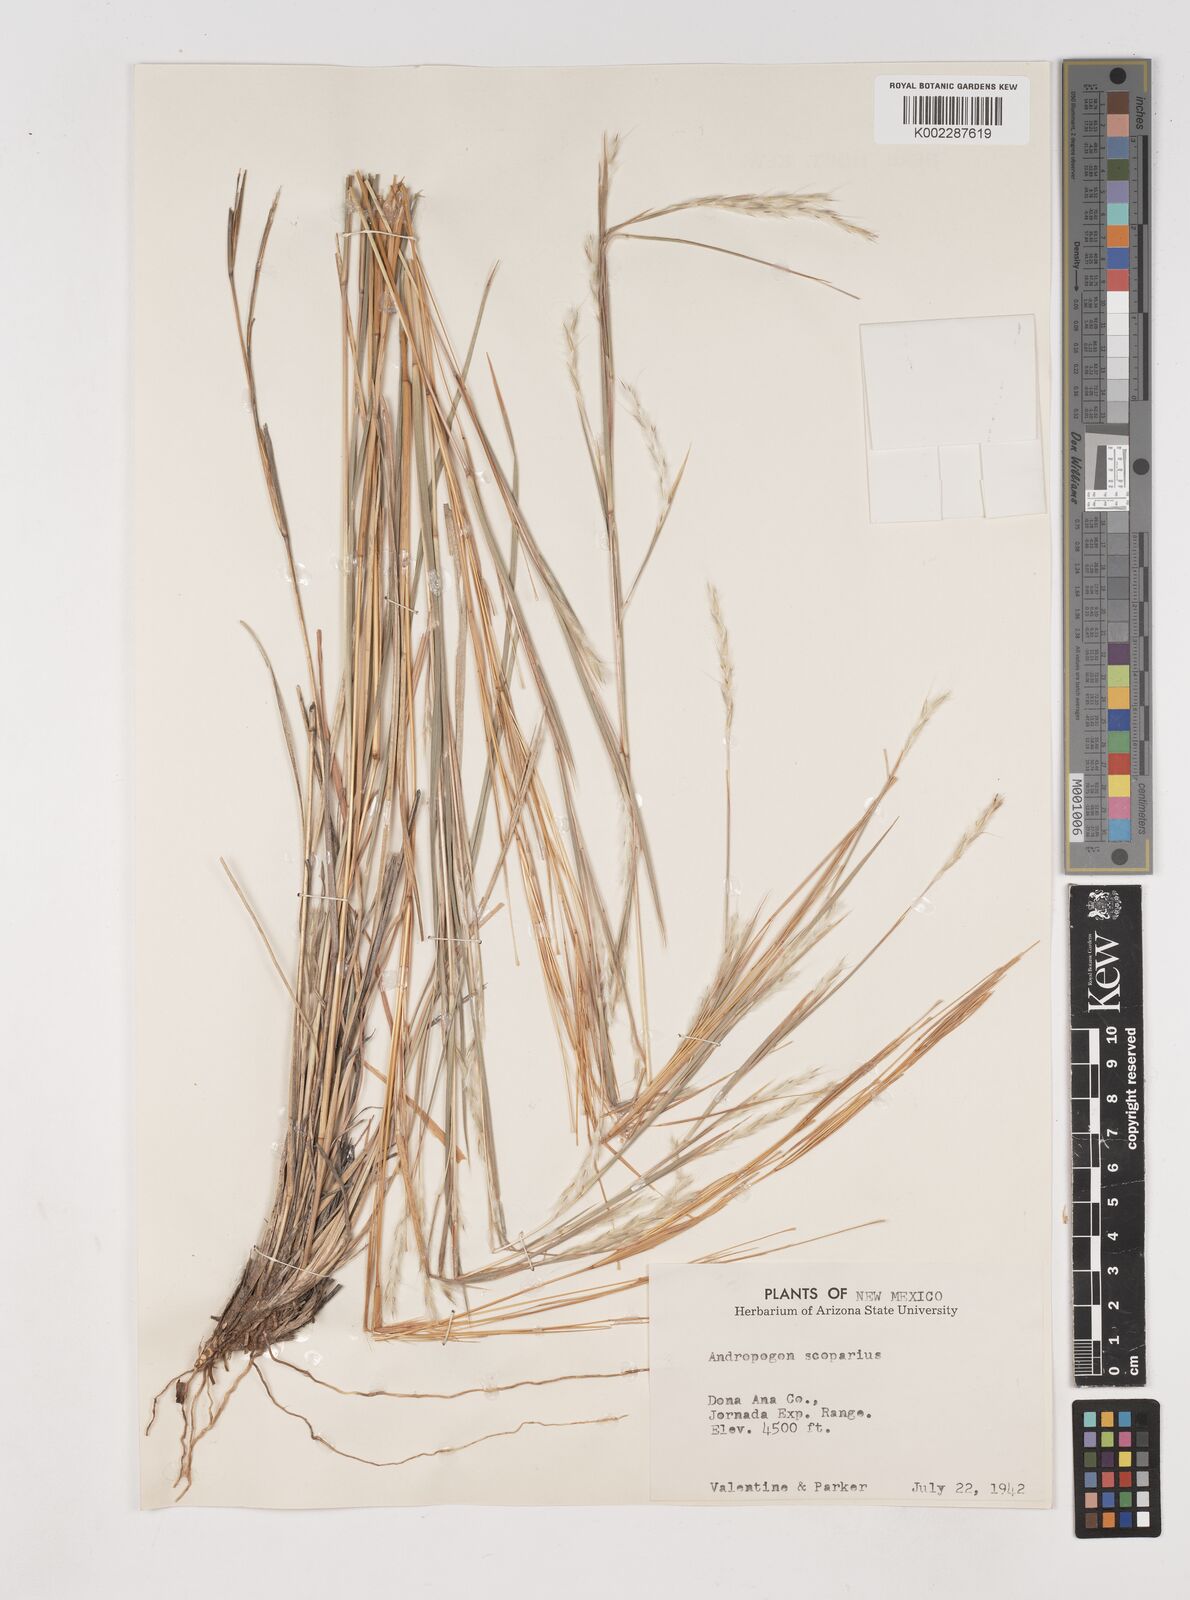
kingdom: Plantae
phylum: Tracheophyta
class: Liliopsida
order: Poales
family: Poaceae
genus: Schizachyrium
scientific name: Schizachyrium scoparium
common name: Little bluestem
